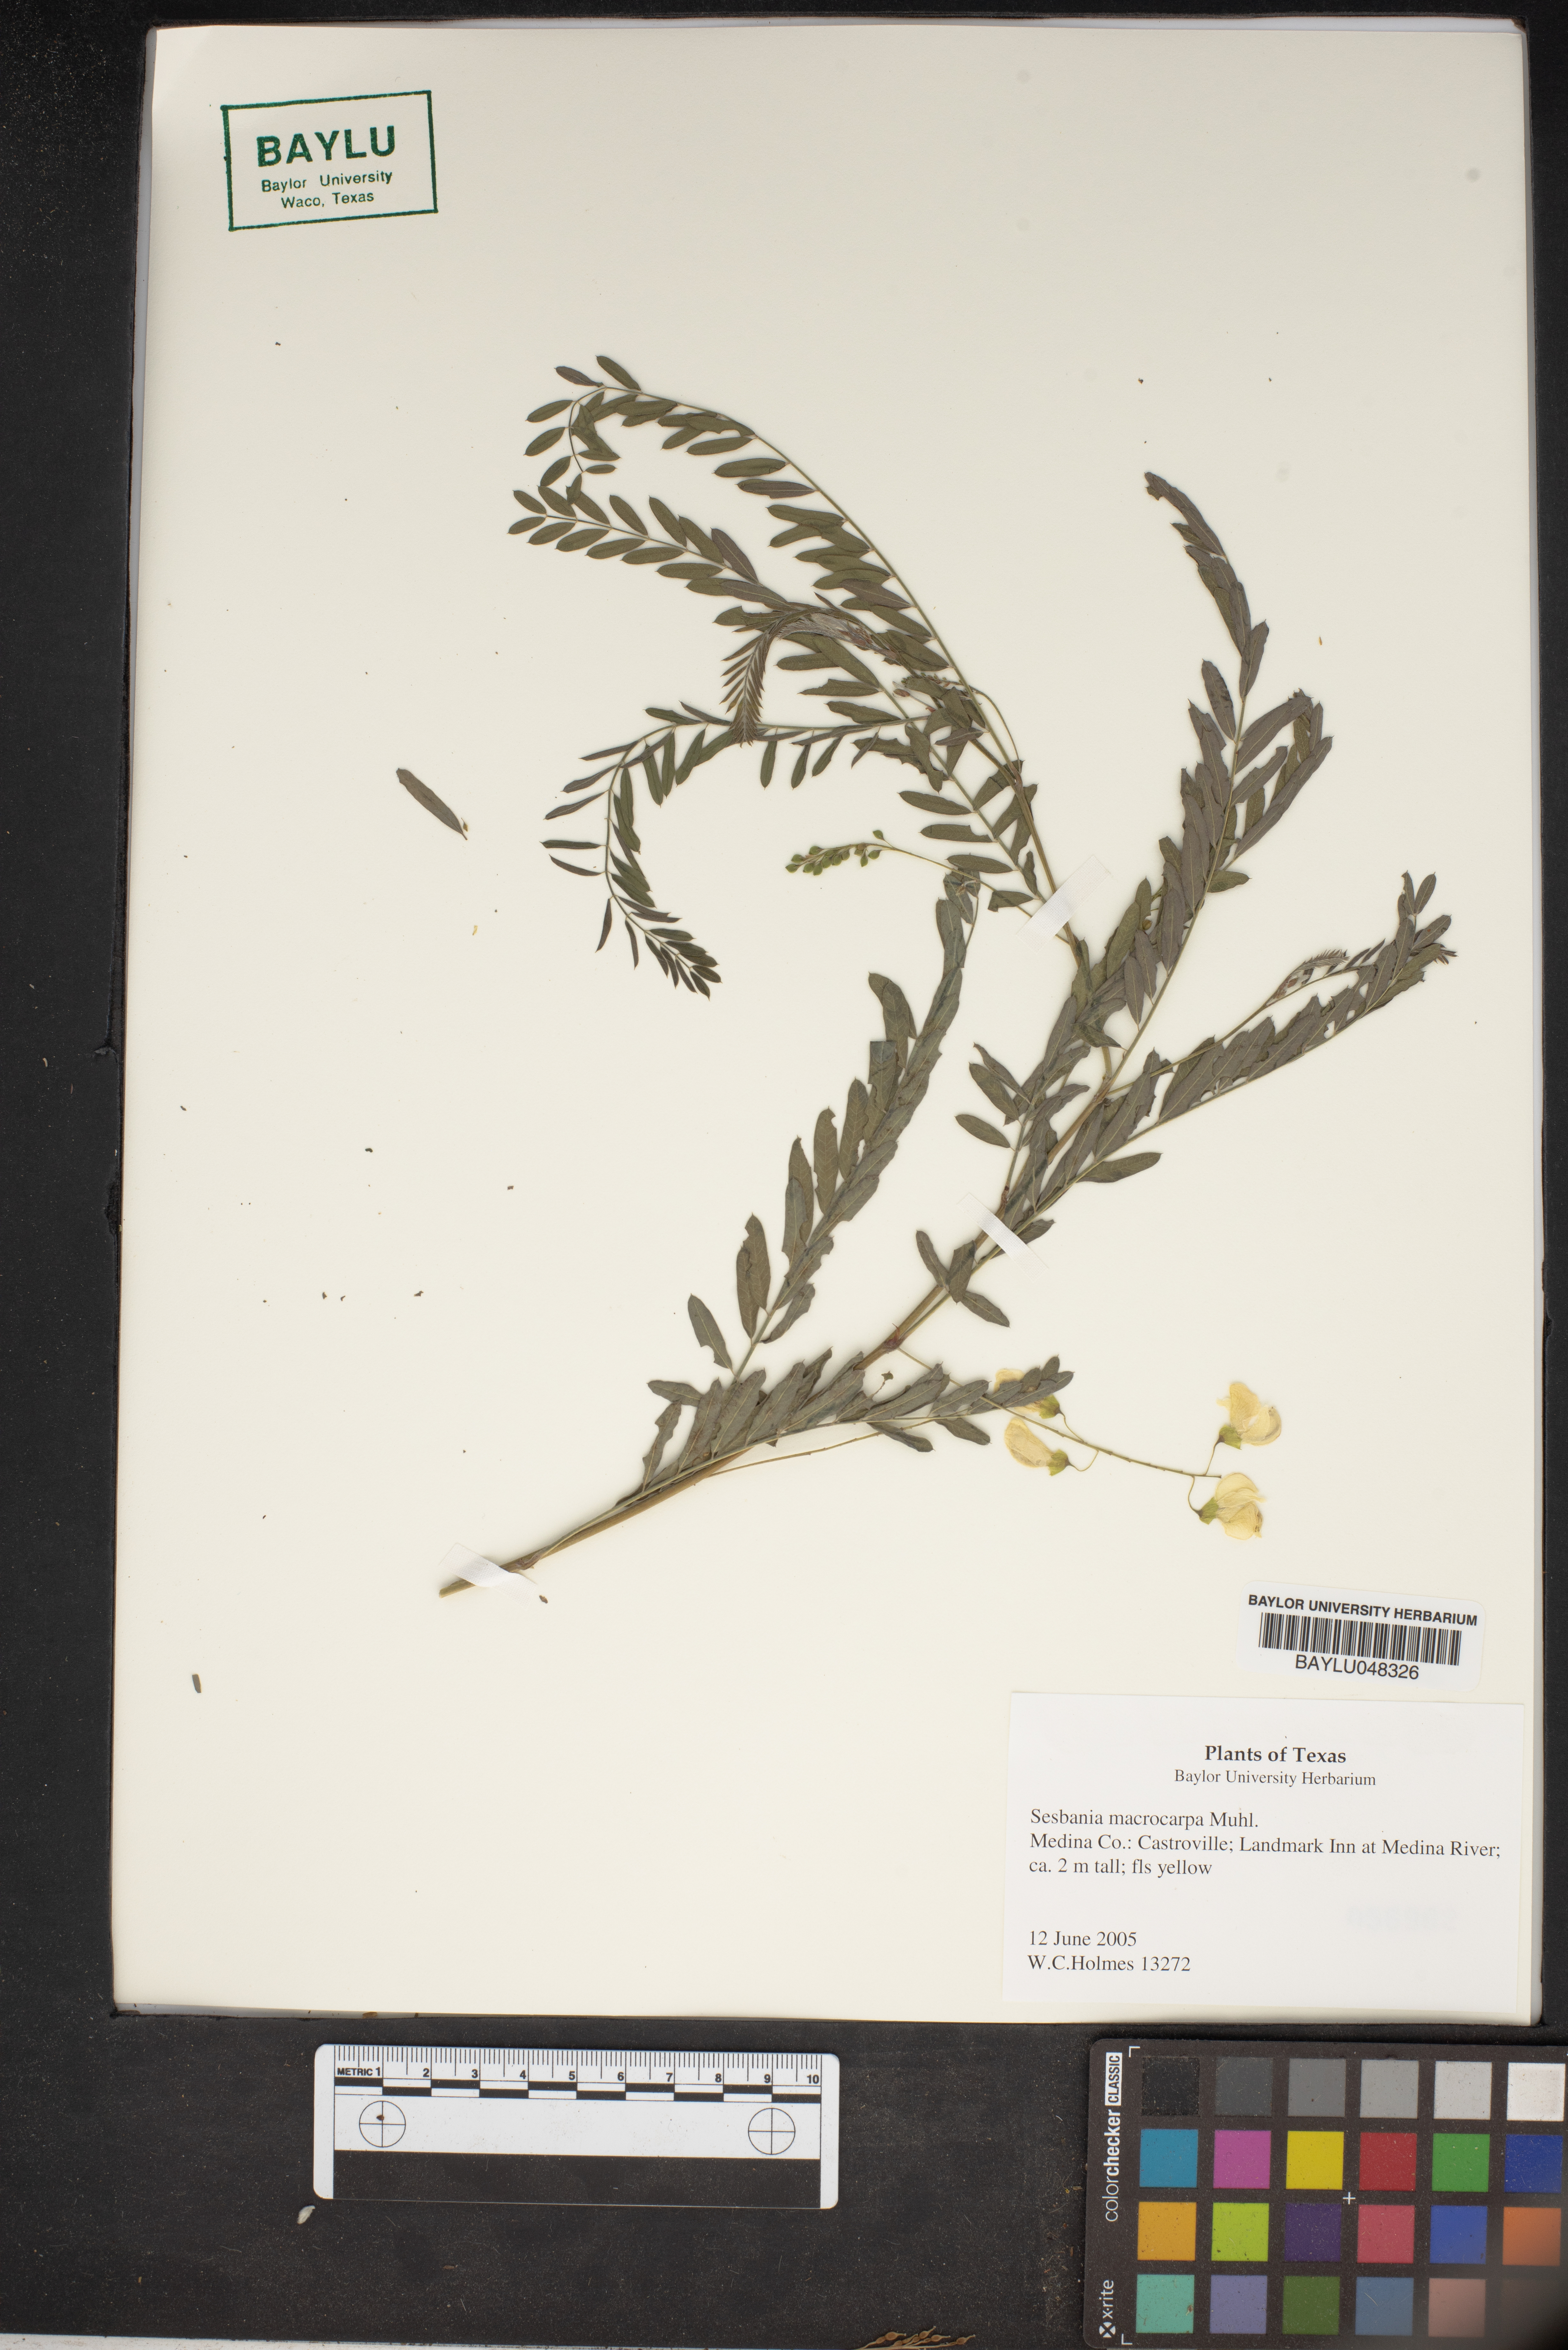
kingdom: Plantae
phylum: Tracheophyta
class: Magnoliopsida
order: Fabales
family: Fabaceae
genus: Sesbania
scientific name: Sesbania vesicaria
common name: Bagpod
